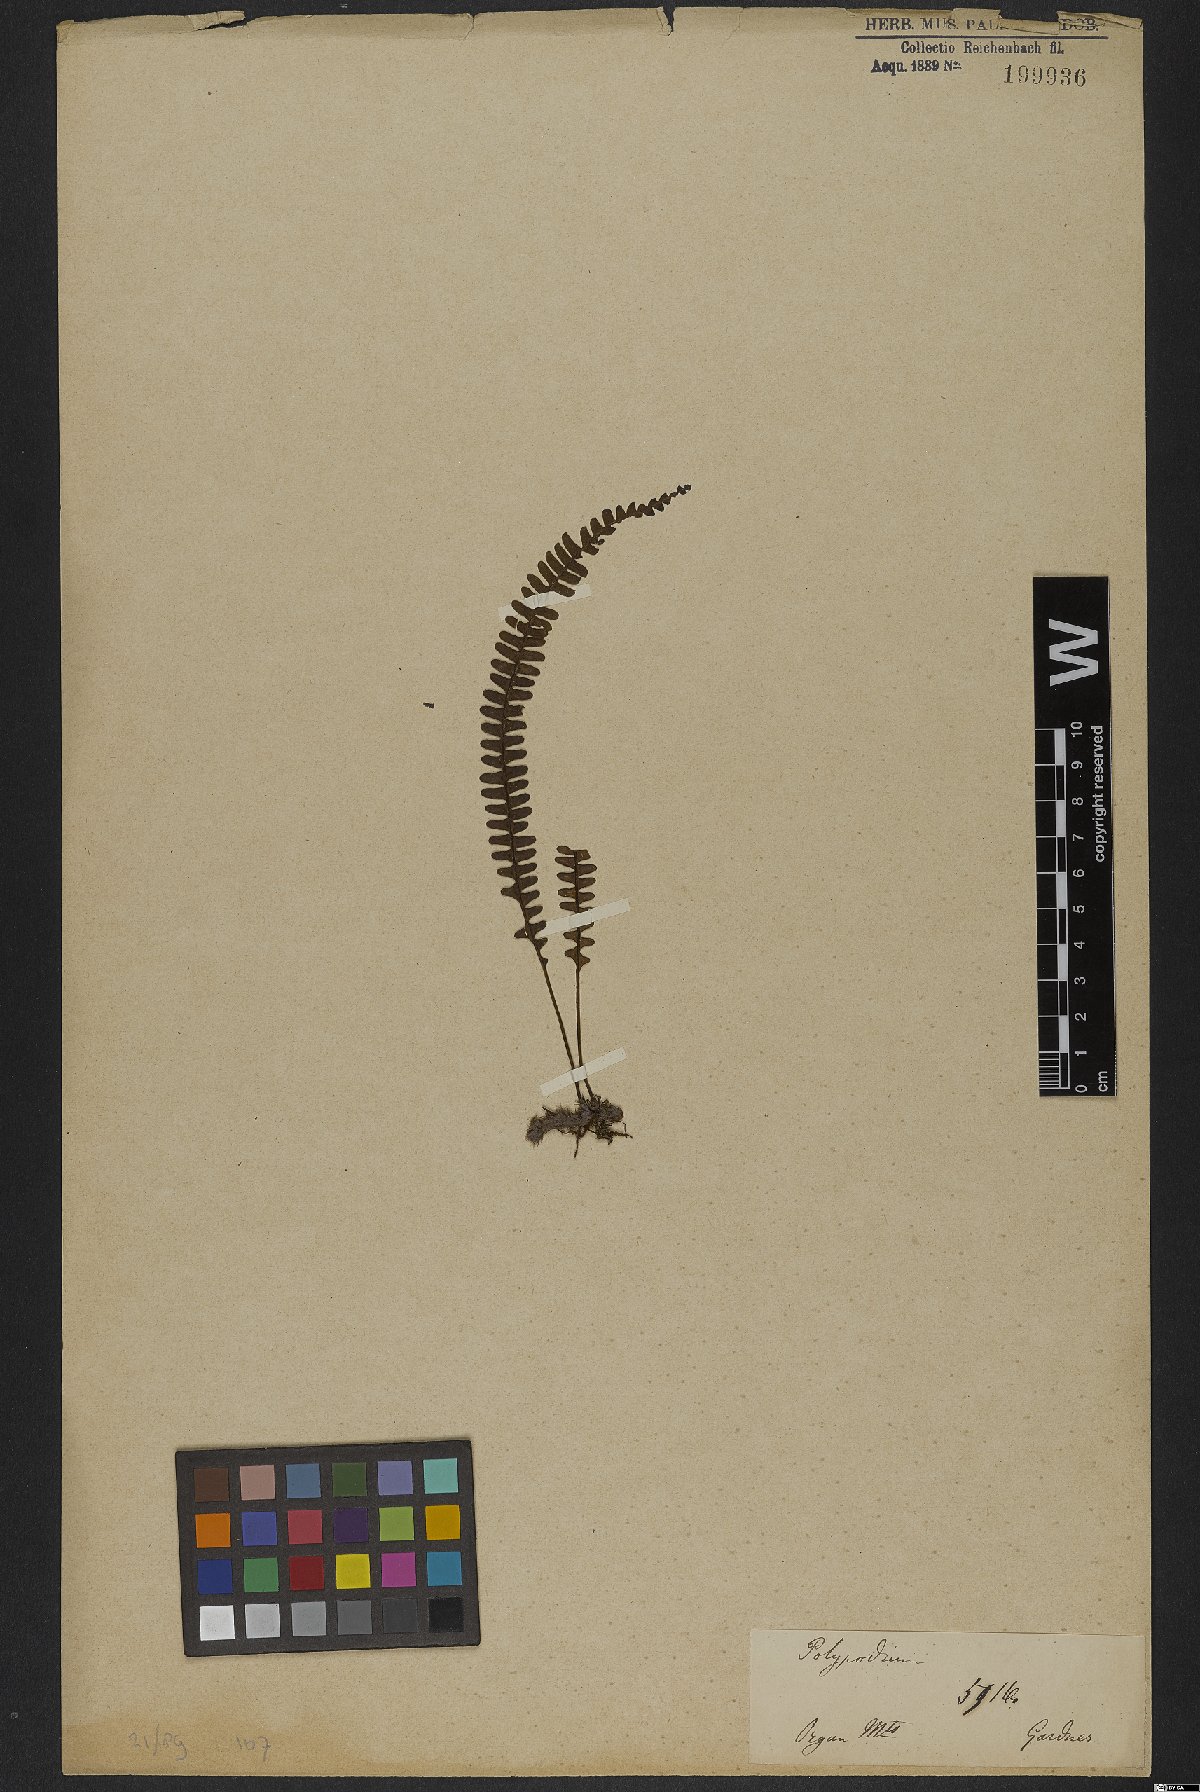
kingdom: Plantae
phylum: Tracheophyta
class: Polypodiopsida
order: Polypodiales
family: Polypodiaceae
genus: Polypodium
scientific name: Polypodium
